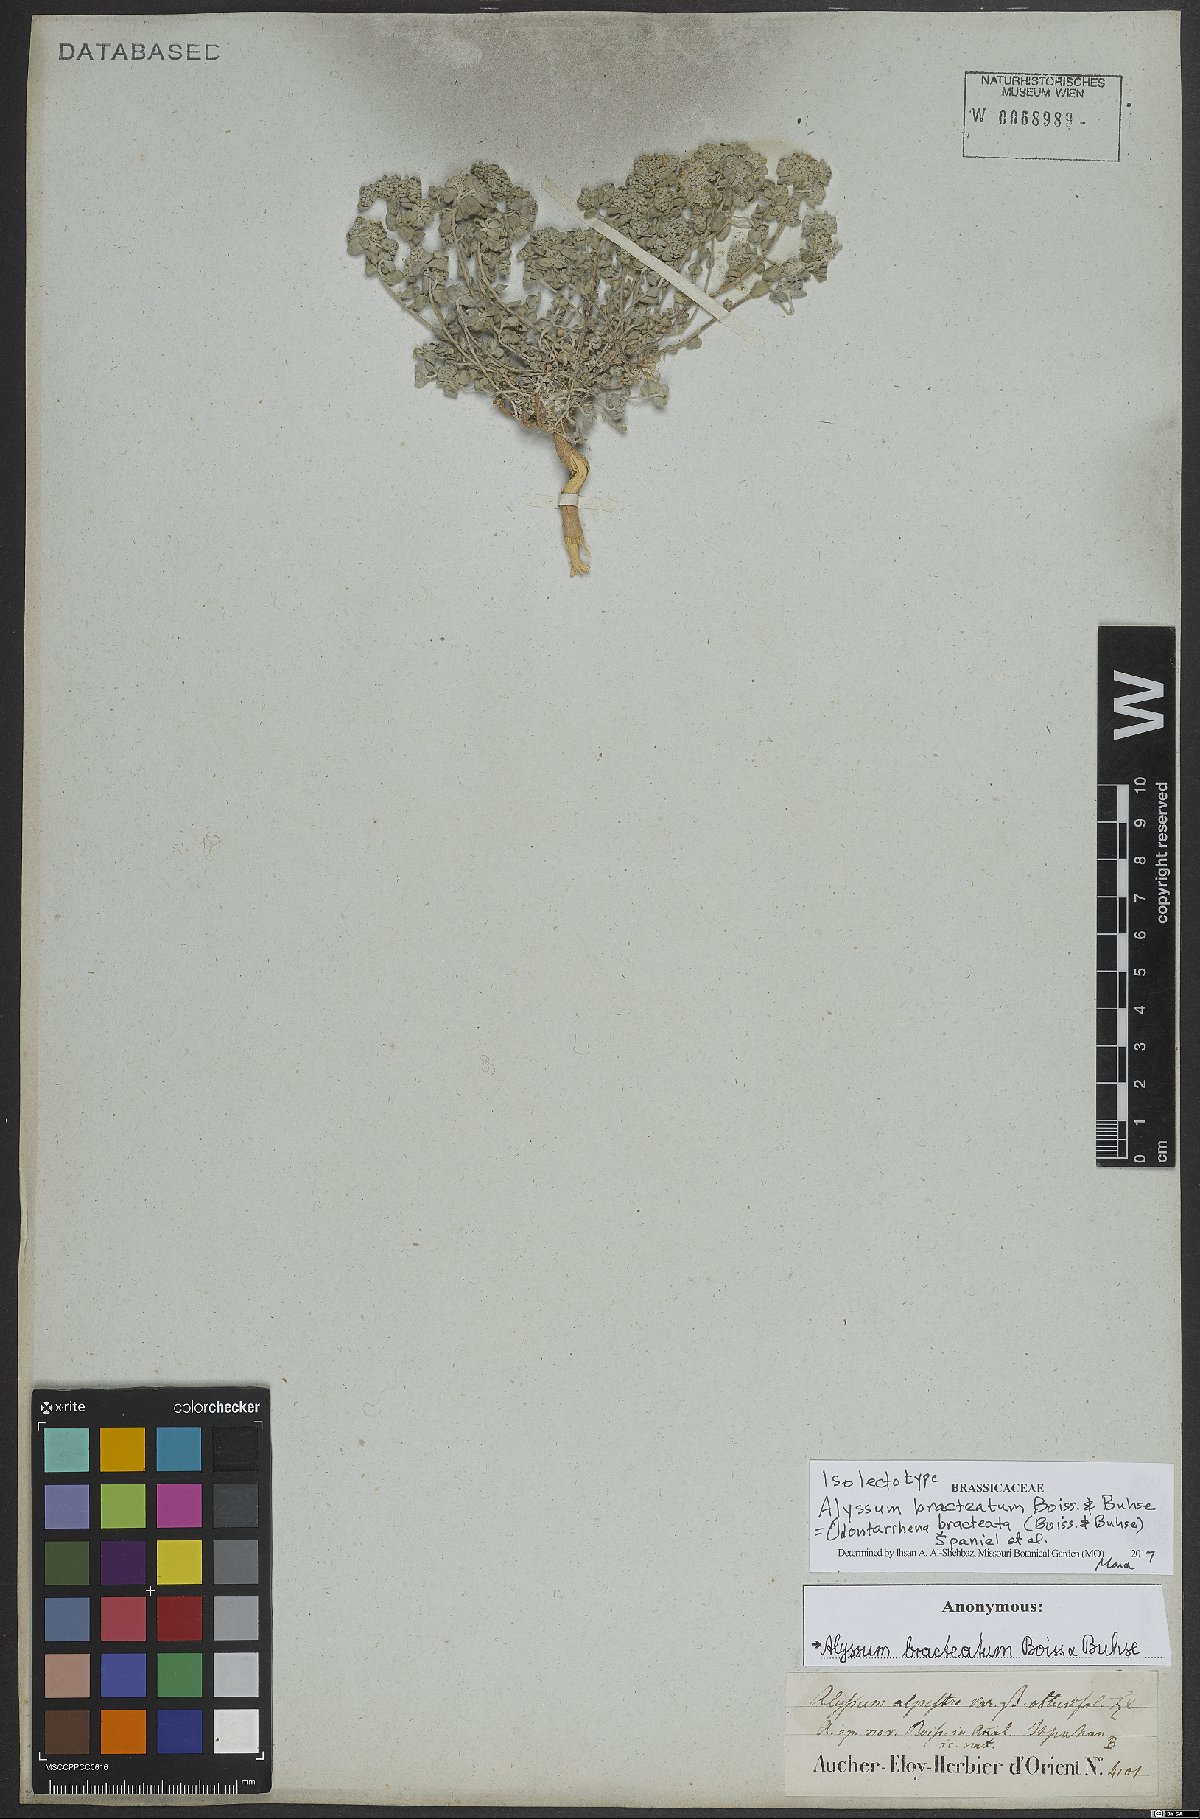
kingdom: Plantae
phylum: Tracheophyta
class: Magnoliopsida
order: Brassicales
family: Brassicaceae
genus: Odontarrhena
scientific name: Odontarrhena bracteata
